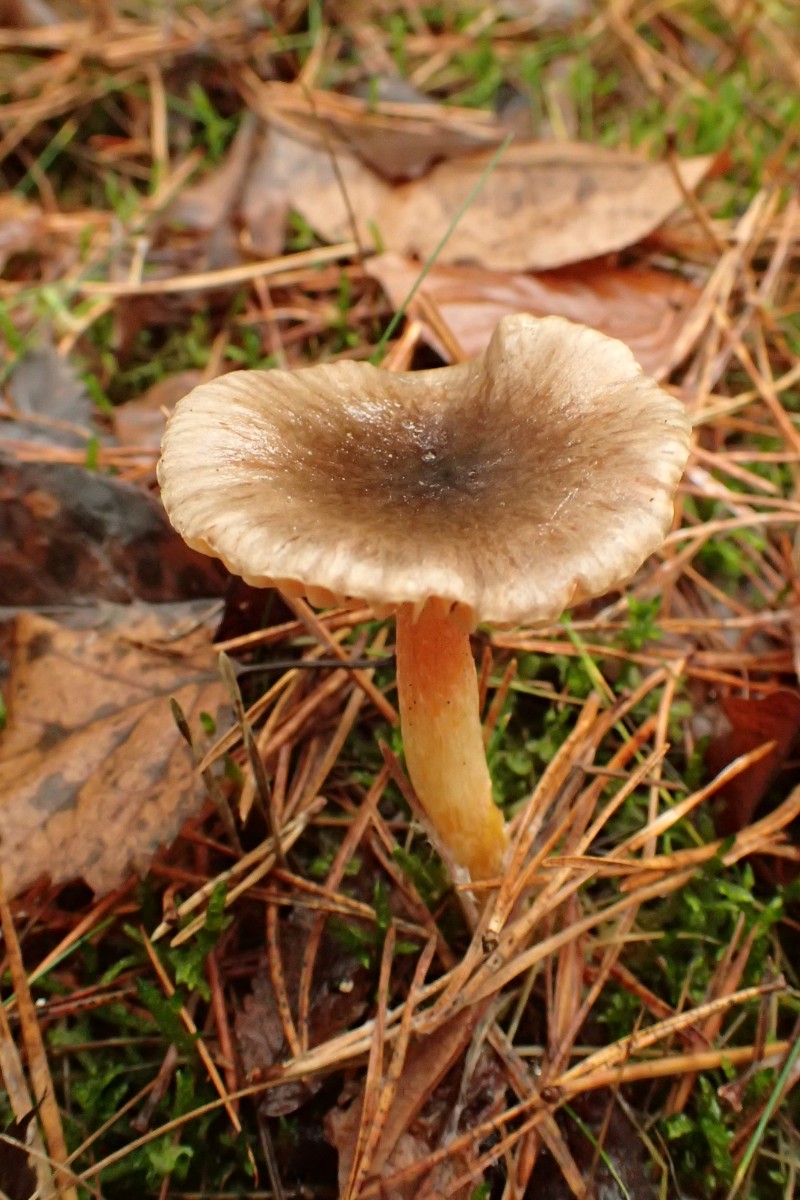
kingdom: Fungi
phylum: Basidiomycota
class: Agaricomycetes
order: Agaricales
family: Hygrophoraceae
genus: Hygrophorus
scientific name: Hygrophorus hypothejus
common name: frost-sneglehat
